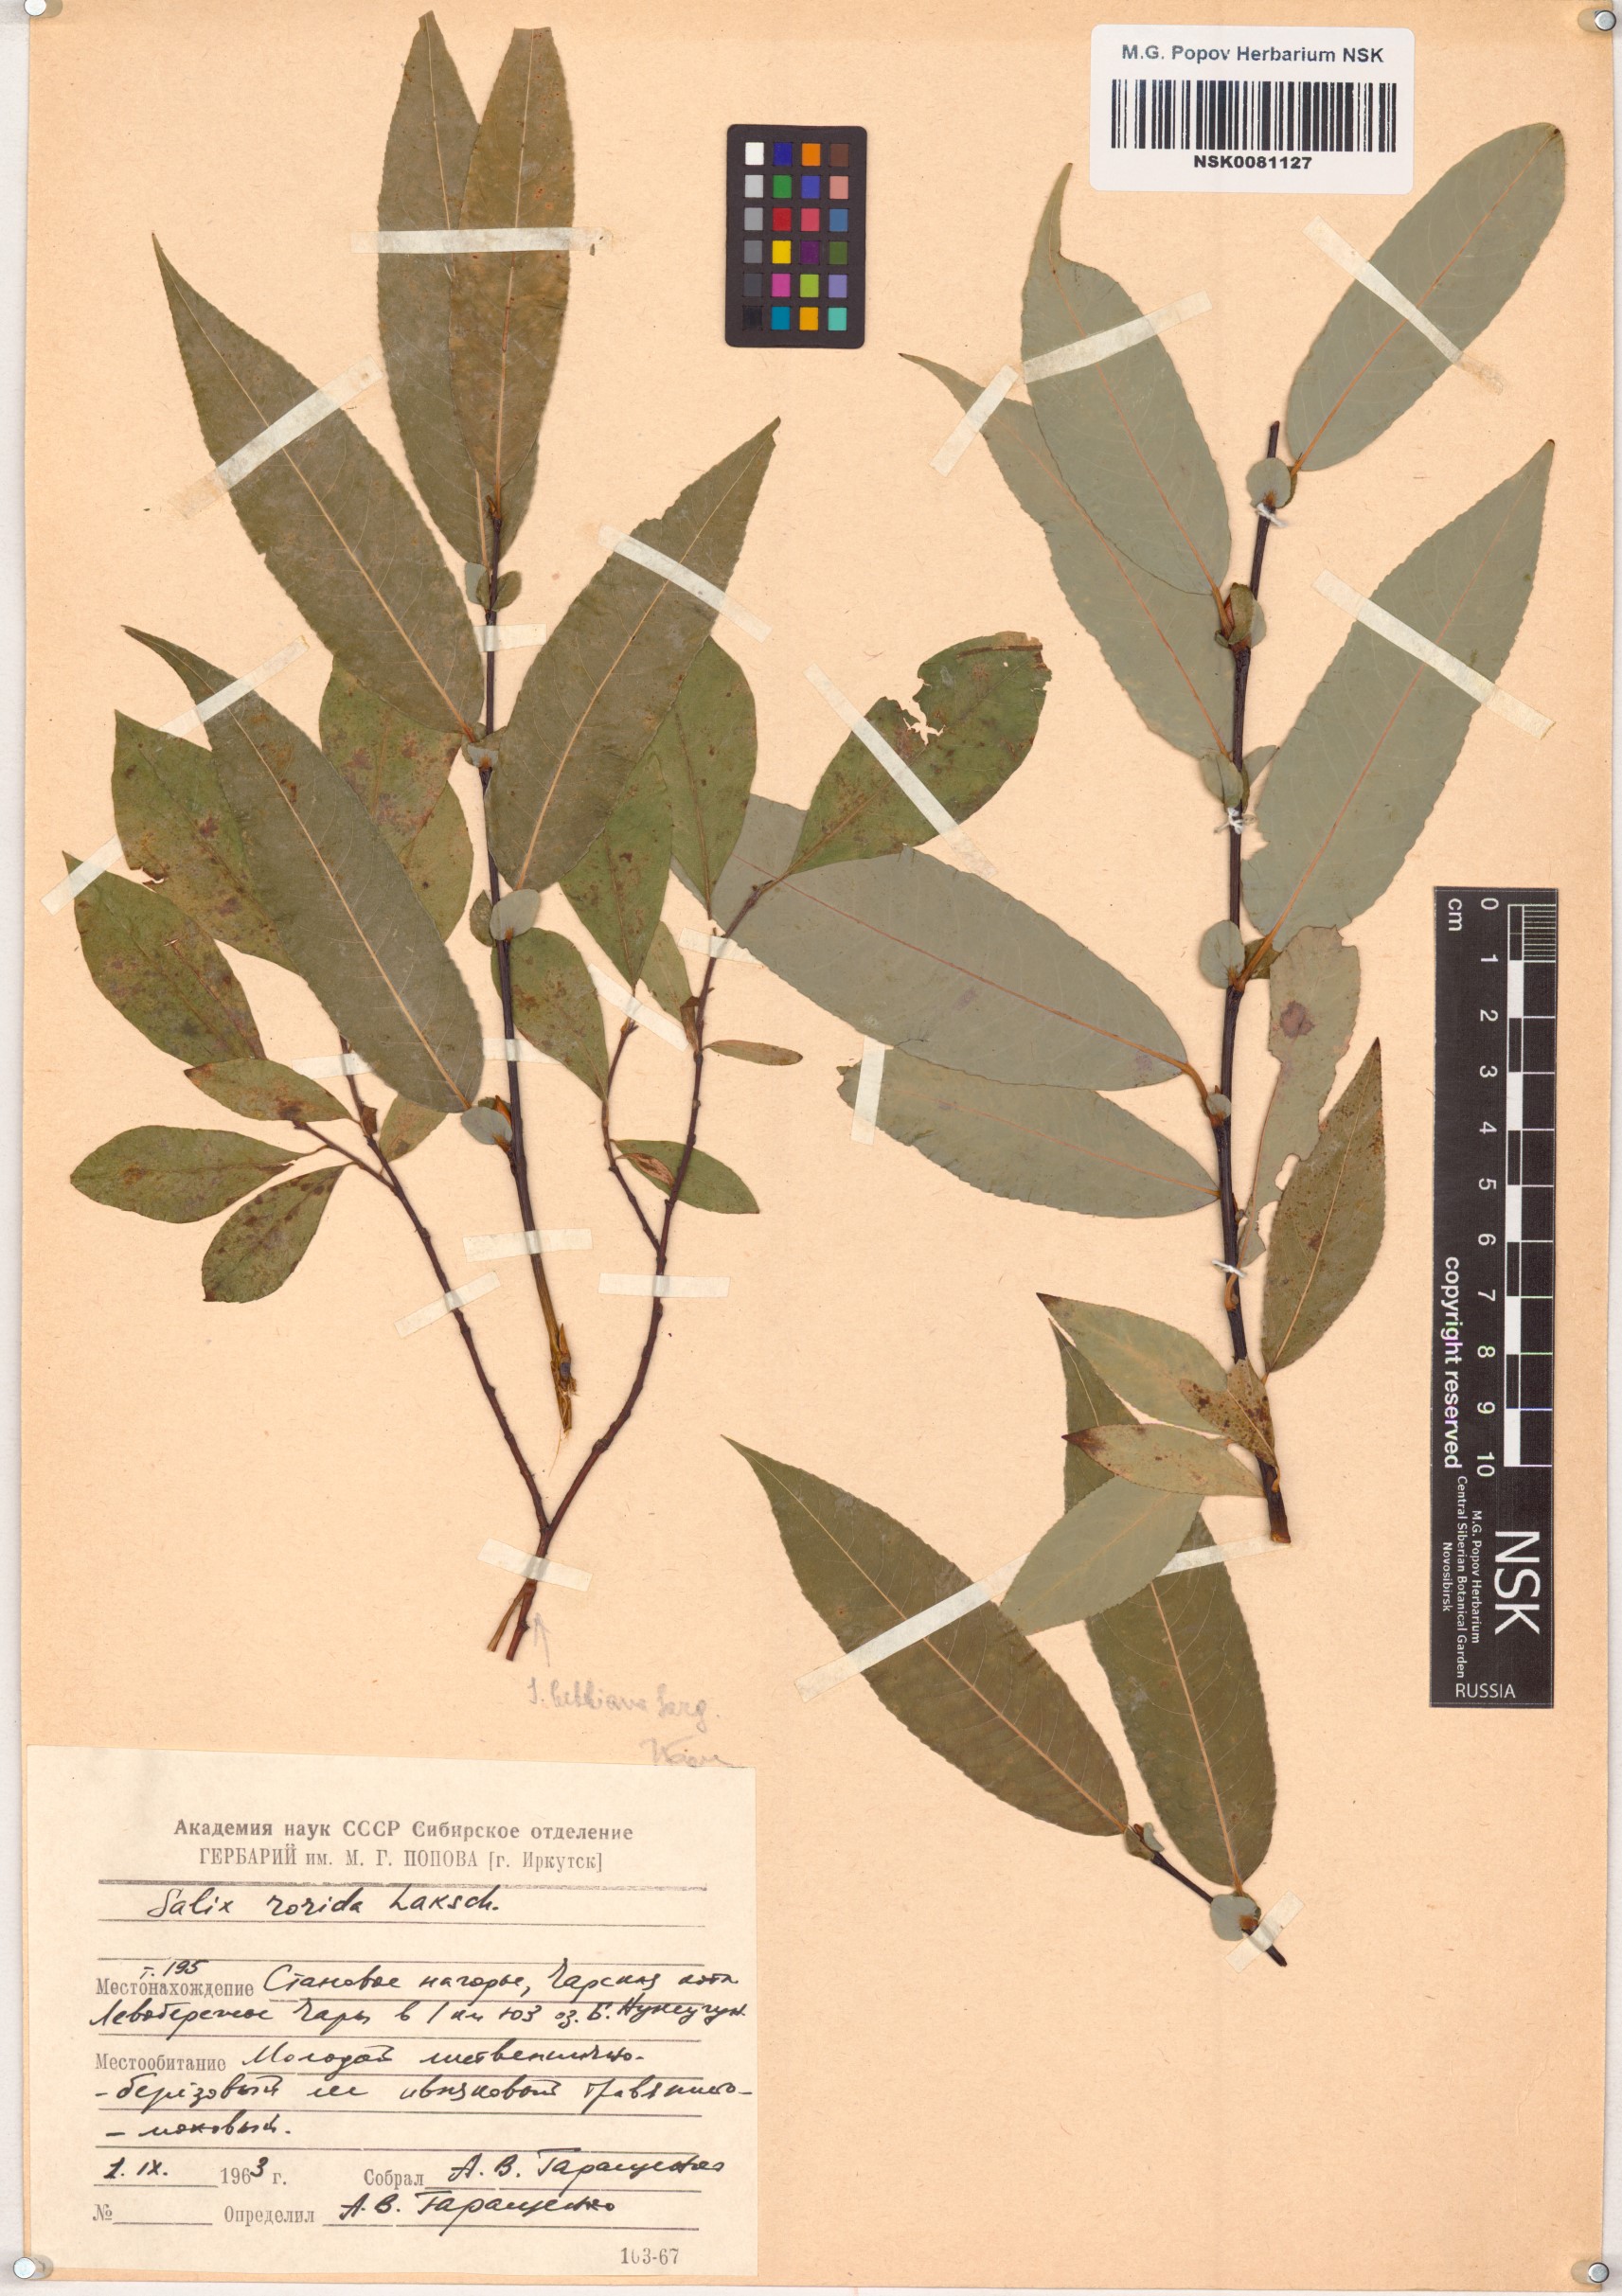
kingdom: Plantae
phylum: Tracheophyta
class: Magnoliopsida
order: Malpighiales
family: Salicaceae
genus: Salix
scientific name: Salix rorida
